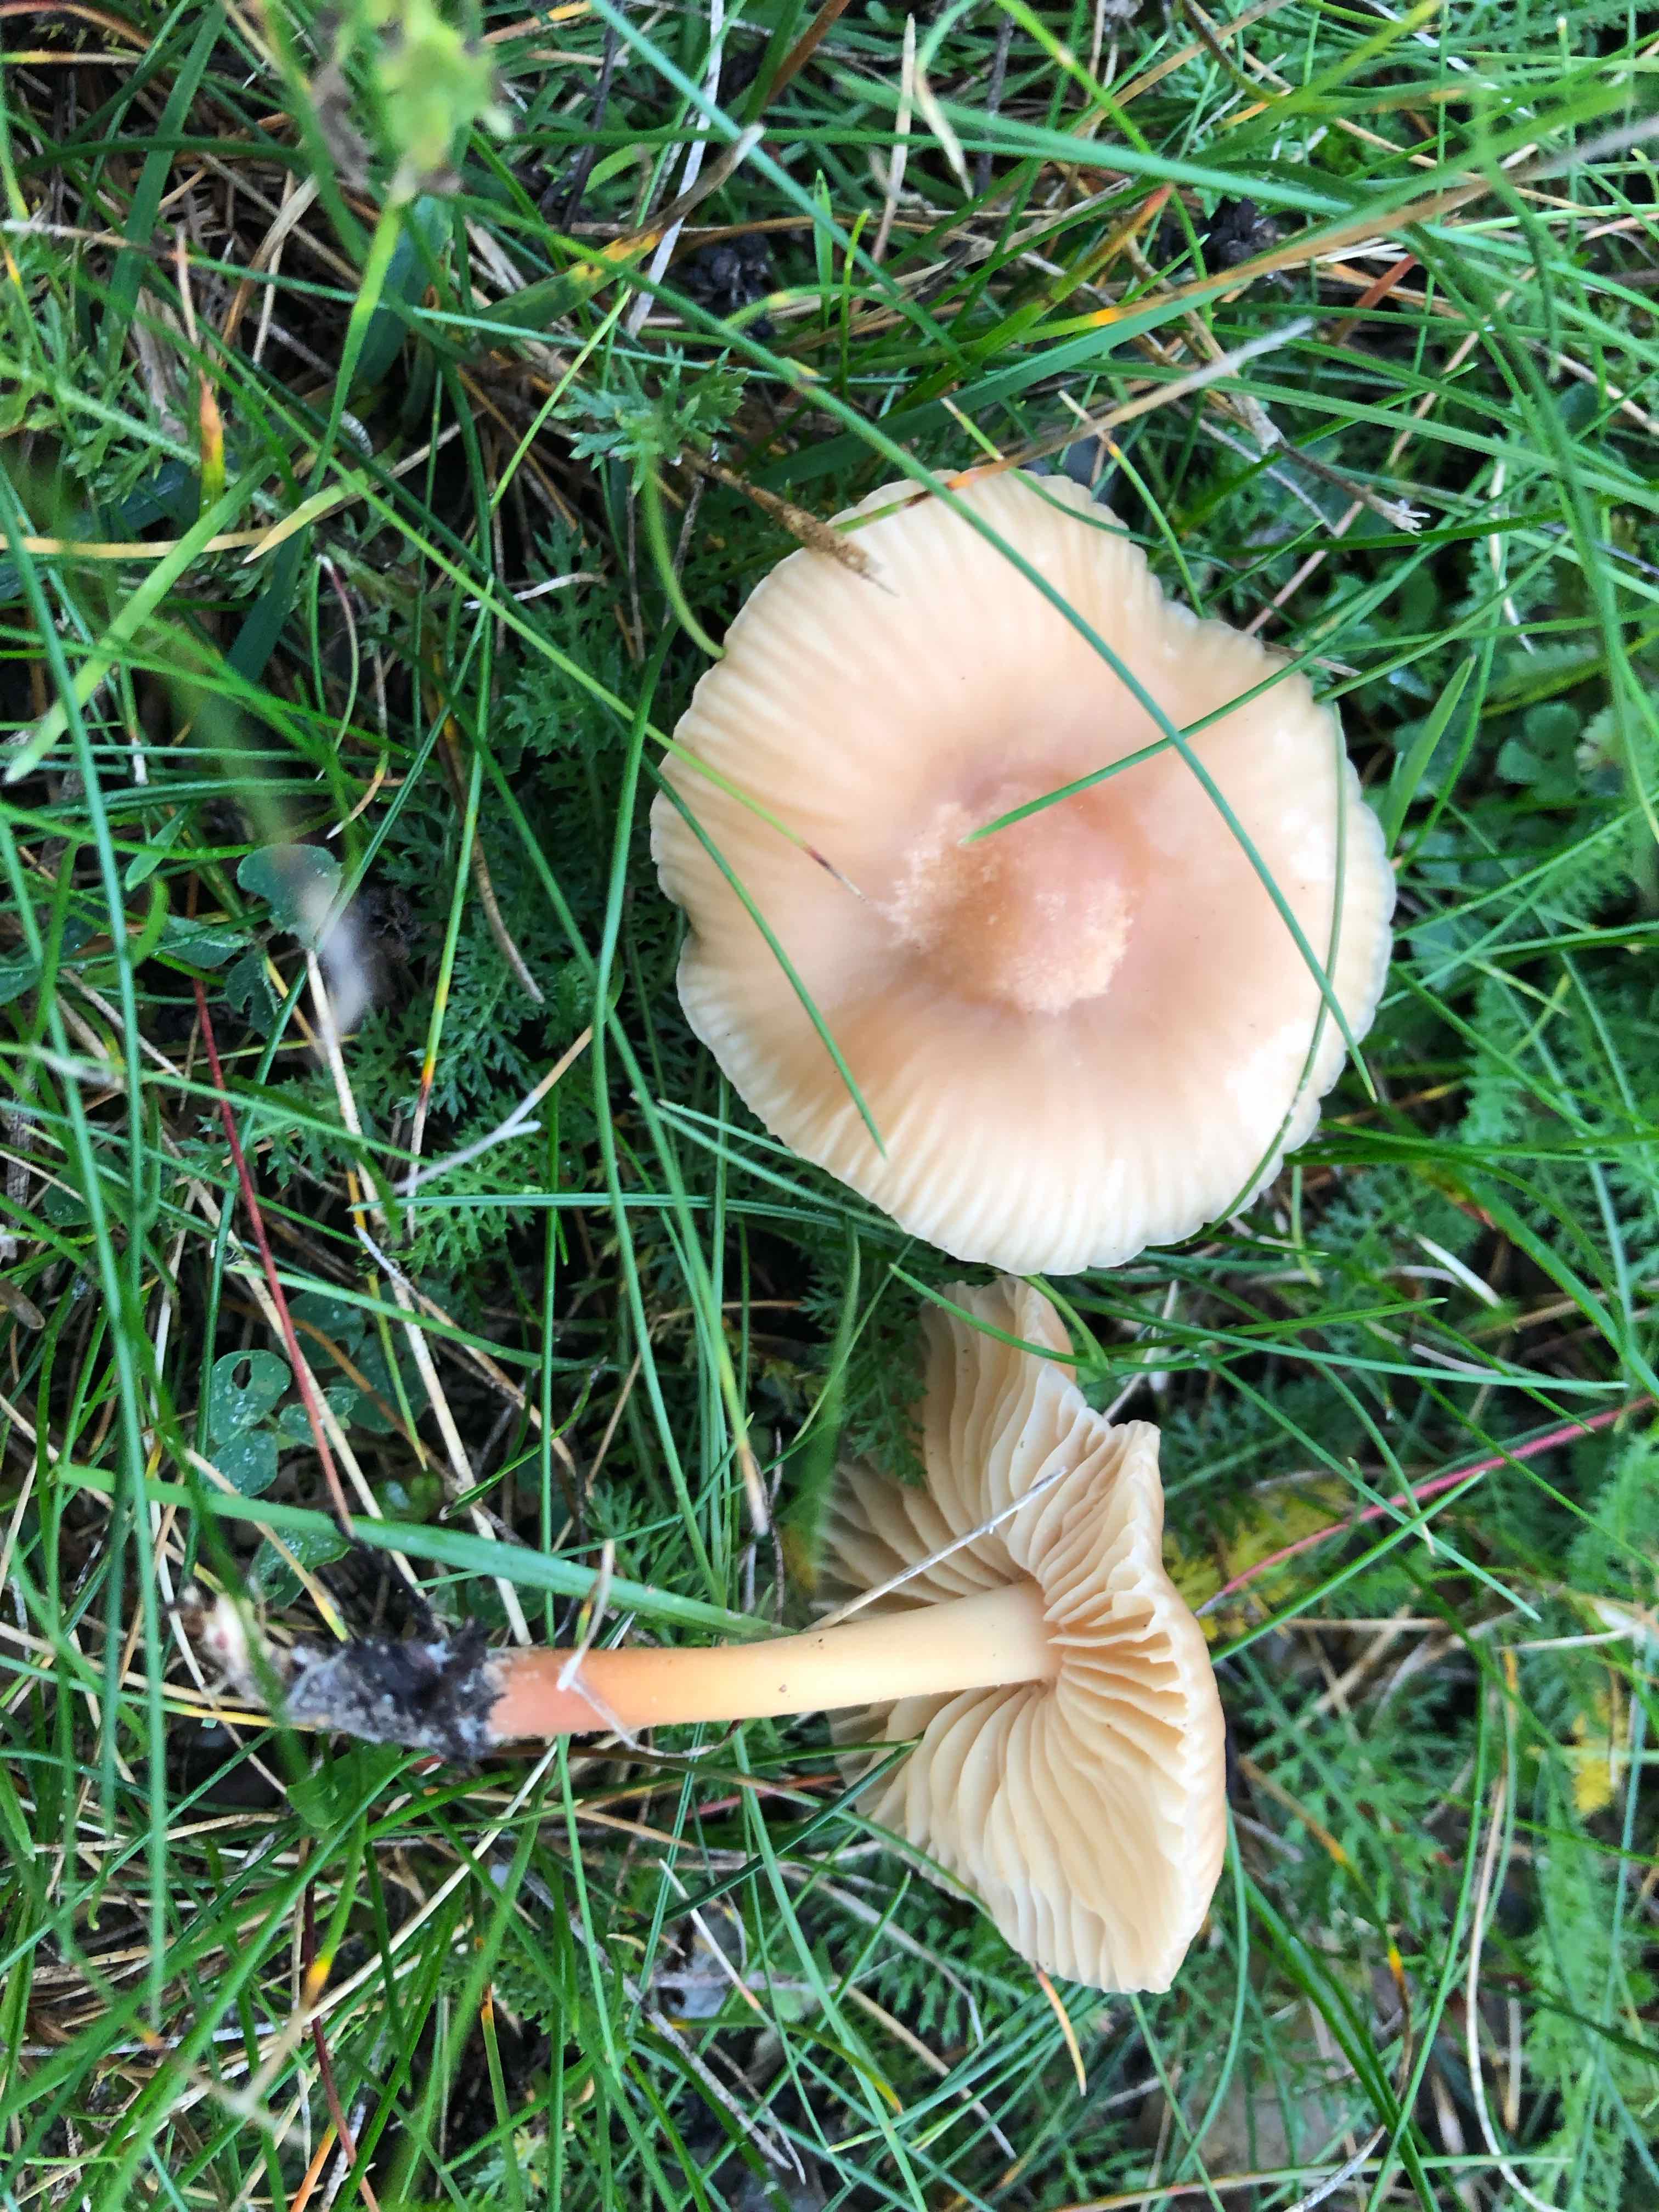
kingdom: Fungi
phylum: Basidiomycota
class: Agaricomycetes
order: Agaricales
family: Marasmiaceae
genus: Marasmius
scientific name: Marasmius oreades
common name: elledans-bruskhat
